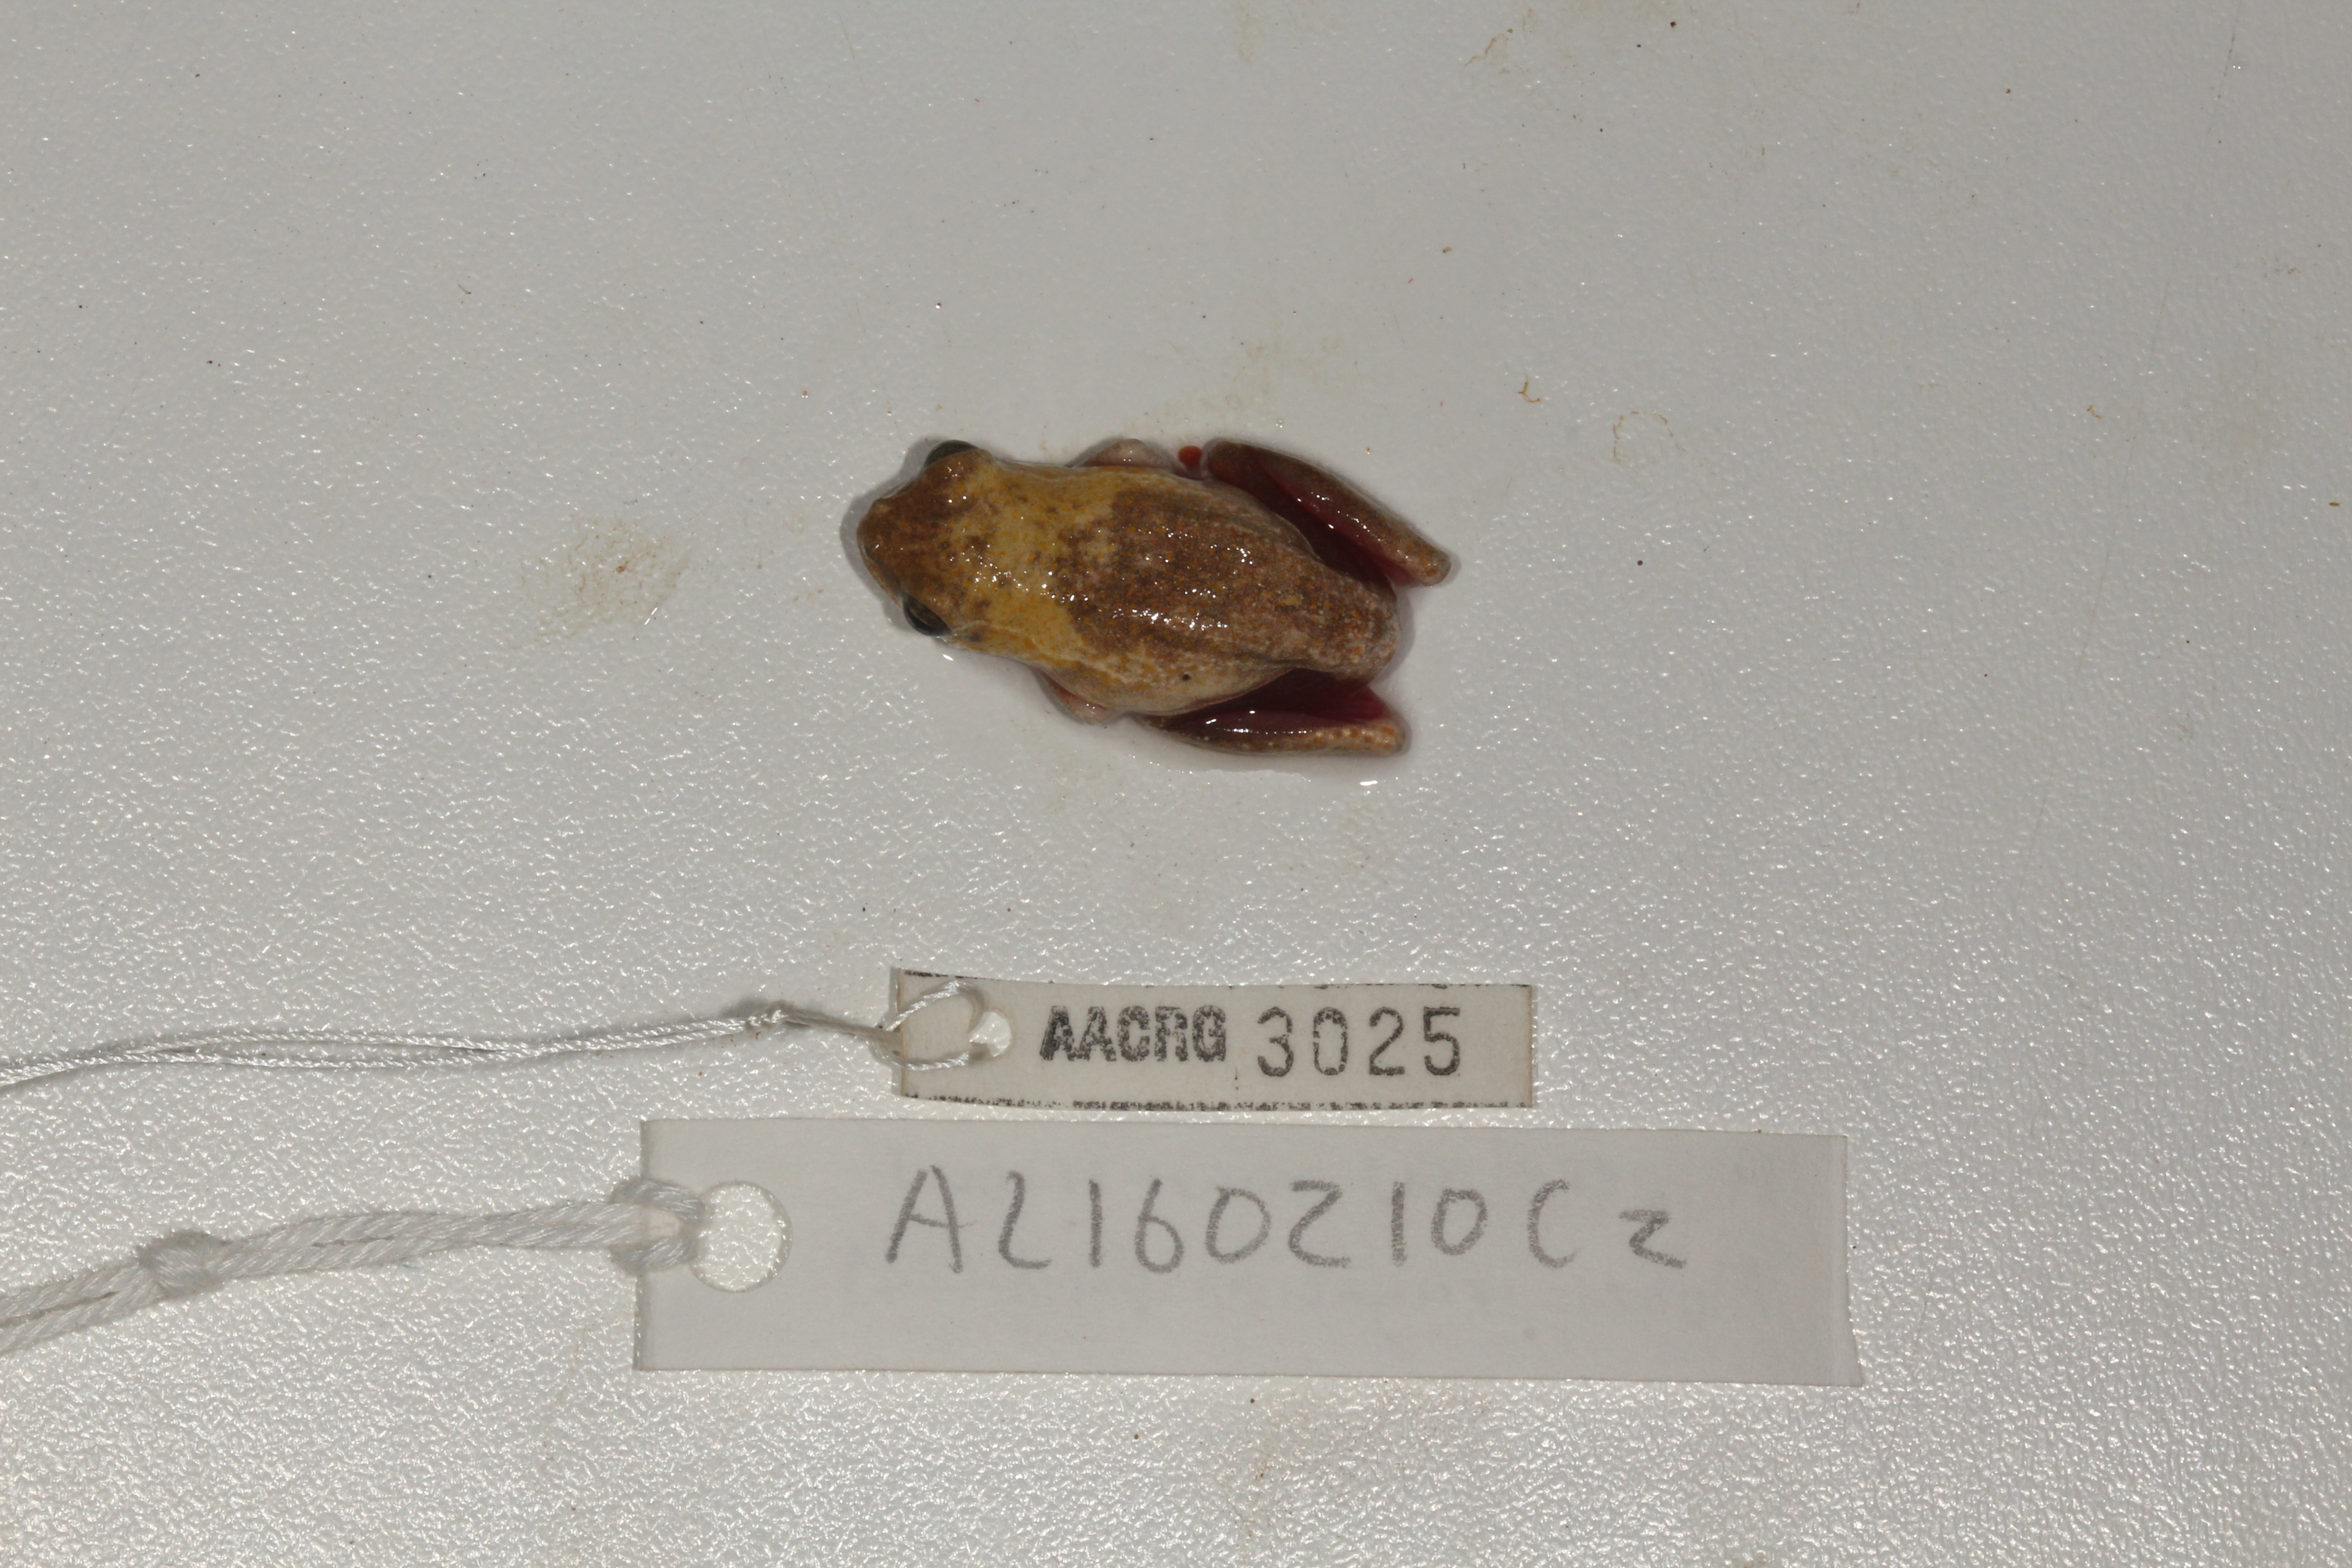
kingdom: Animalia
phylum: Chordata
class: Amphibia
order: Anura
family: Hyperoliidae
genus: Hyperolius
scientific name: Hyperolius marmoratus
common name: Painted reed frog
